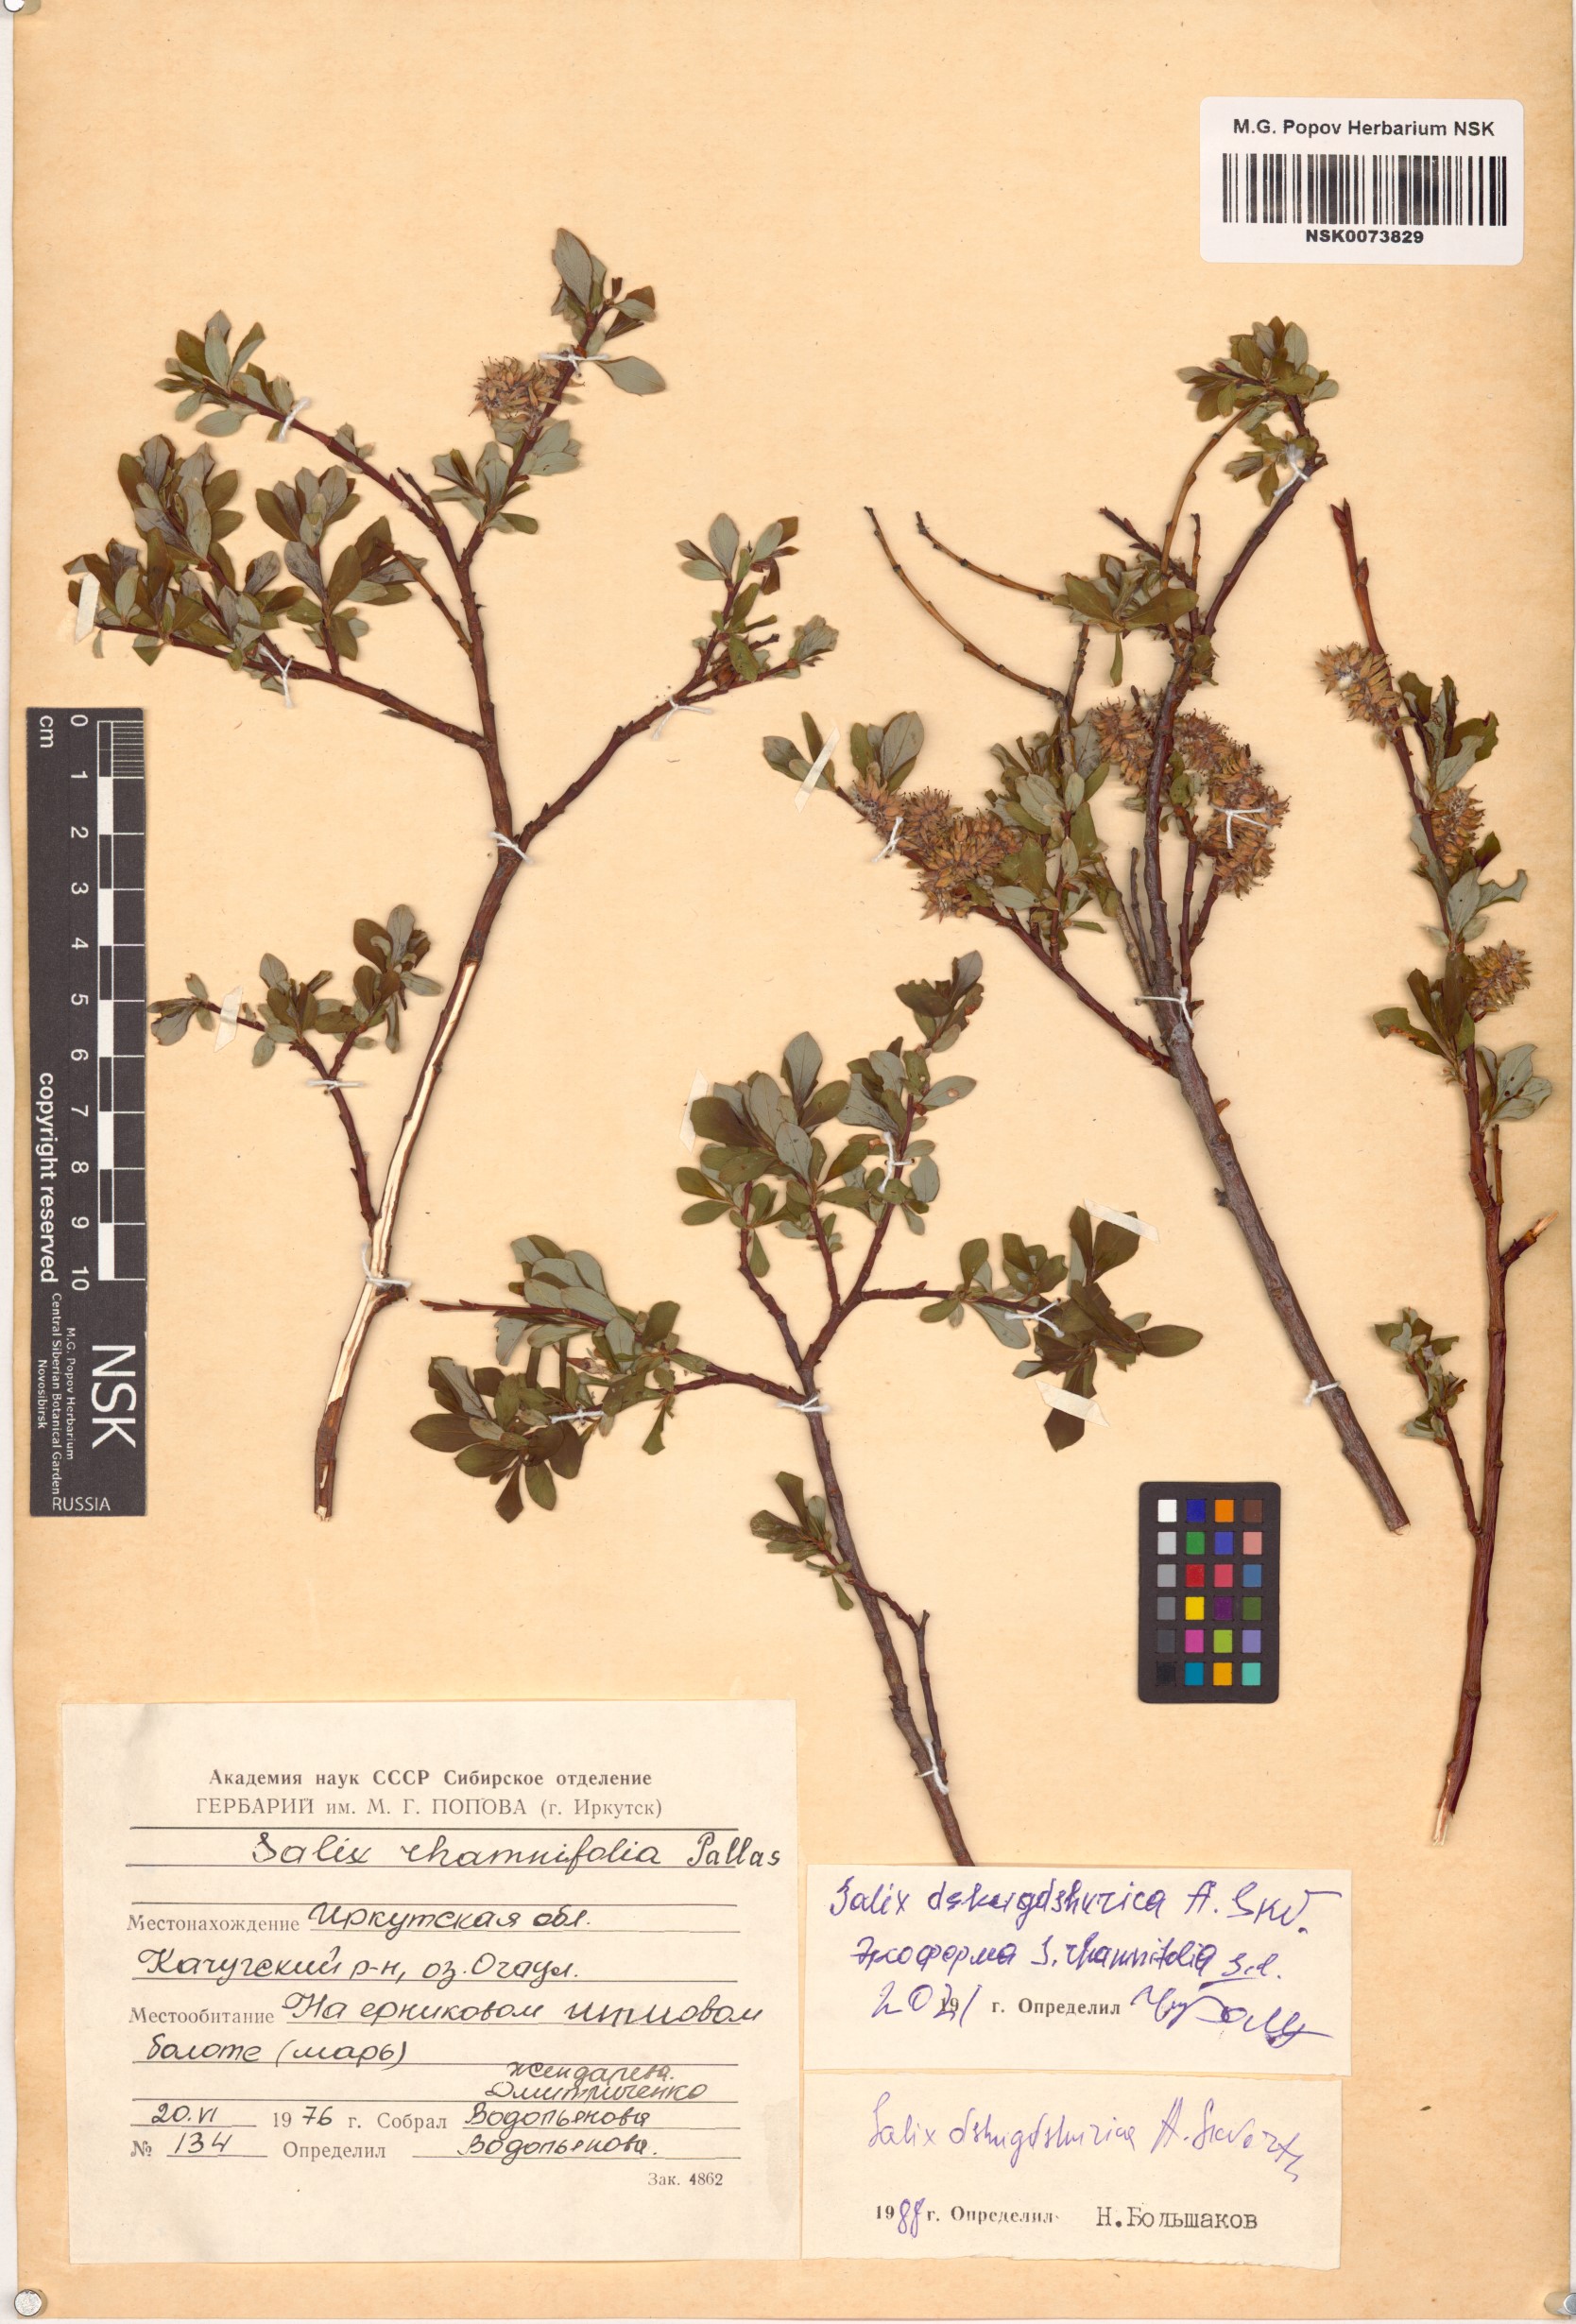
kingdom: Plantae
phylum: Tracheophyta
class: Magnoliopsida
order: Malpighiales
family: Salicaceae
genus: Salix
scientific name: Salix dshugdshurica
